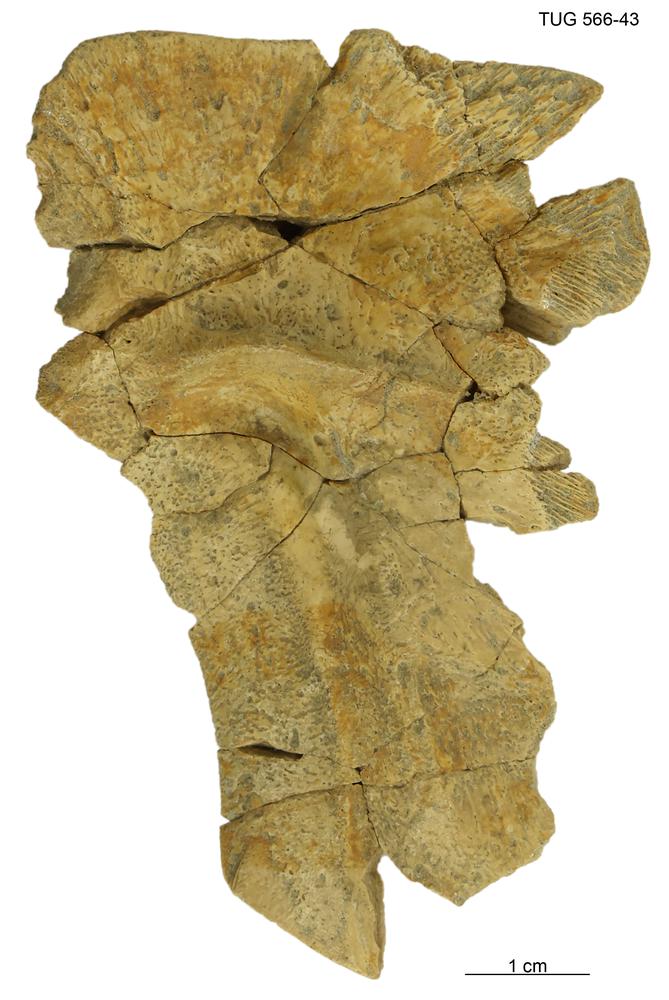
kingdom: Animalia
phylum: Chordata
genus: Homosteus
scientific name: Homosteus sulcatus
